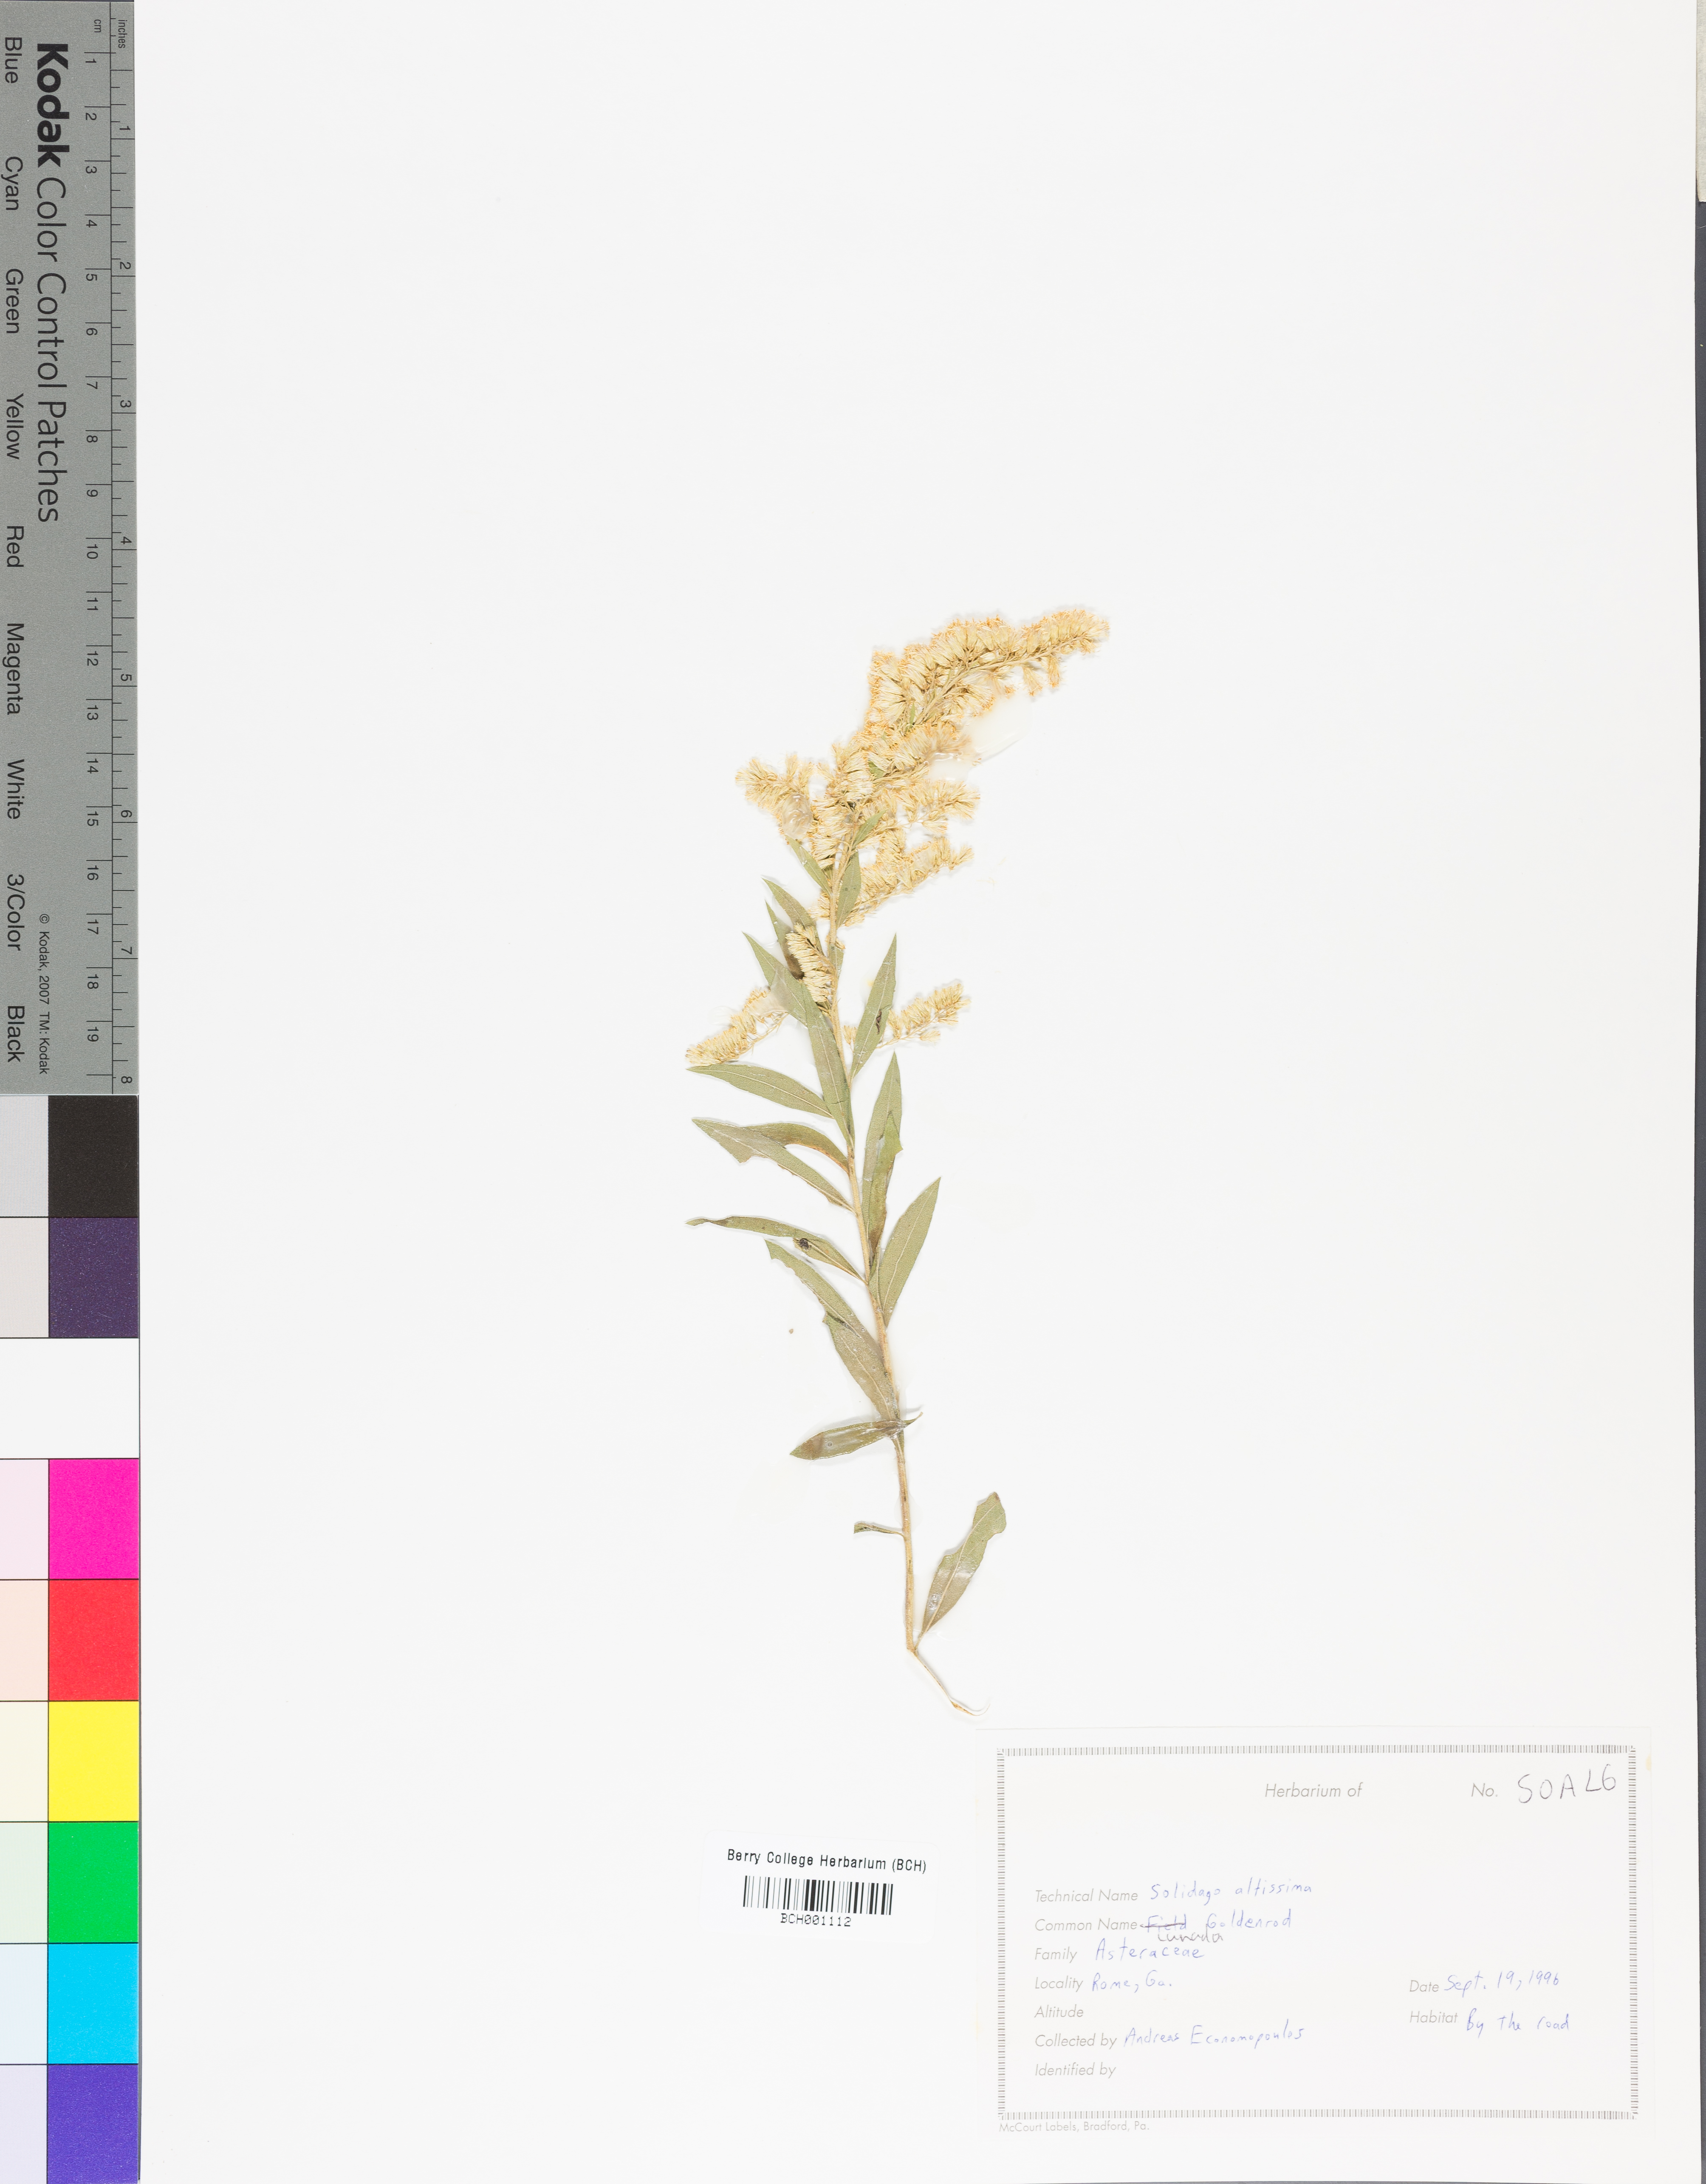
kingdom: Plantae
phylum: Tracheophyta
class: Magnoliopsida
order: Asterales
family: Asteraceae
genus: Solidago
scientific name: Solidago altissima
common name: Late goldenrod
